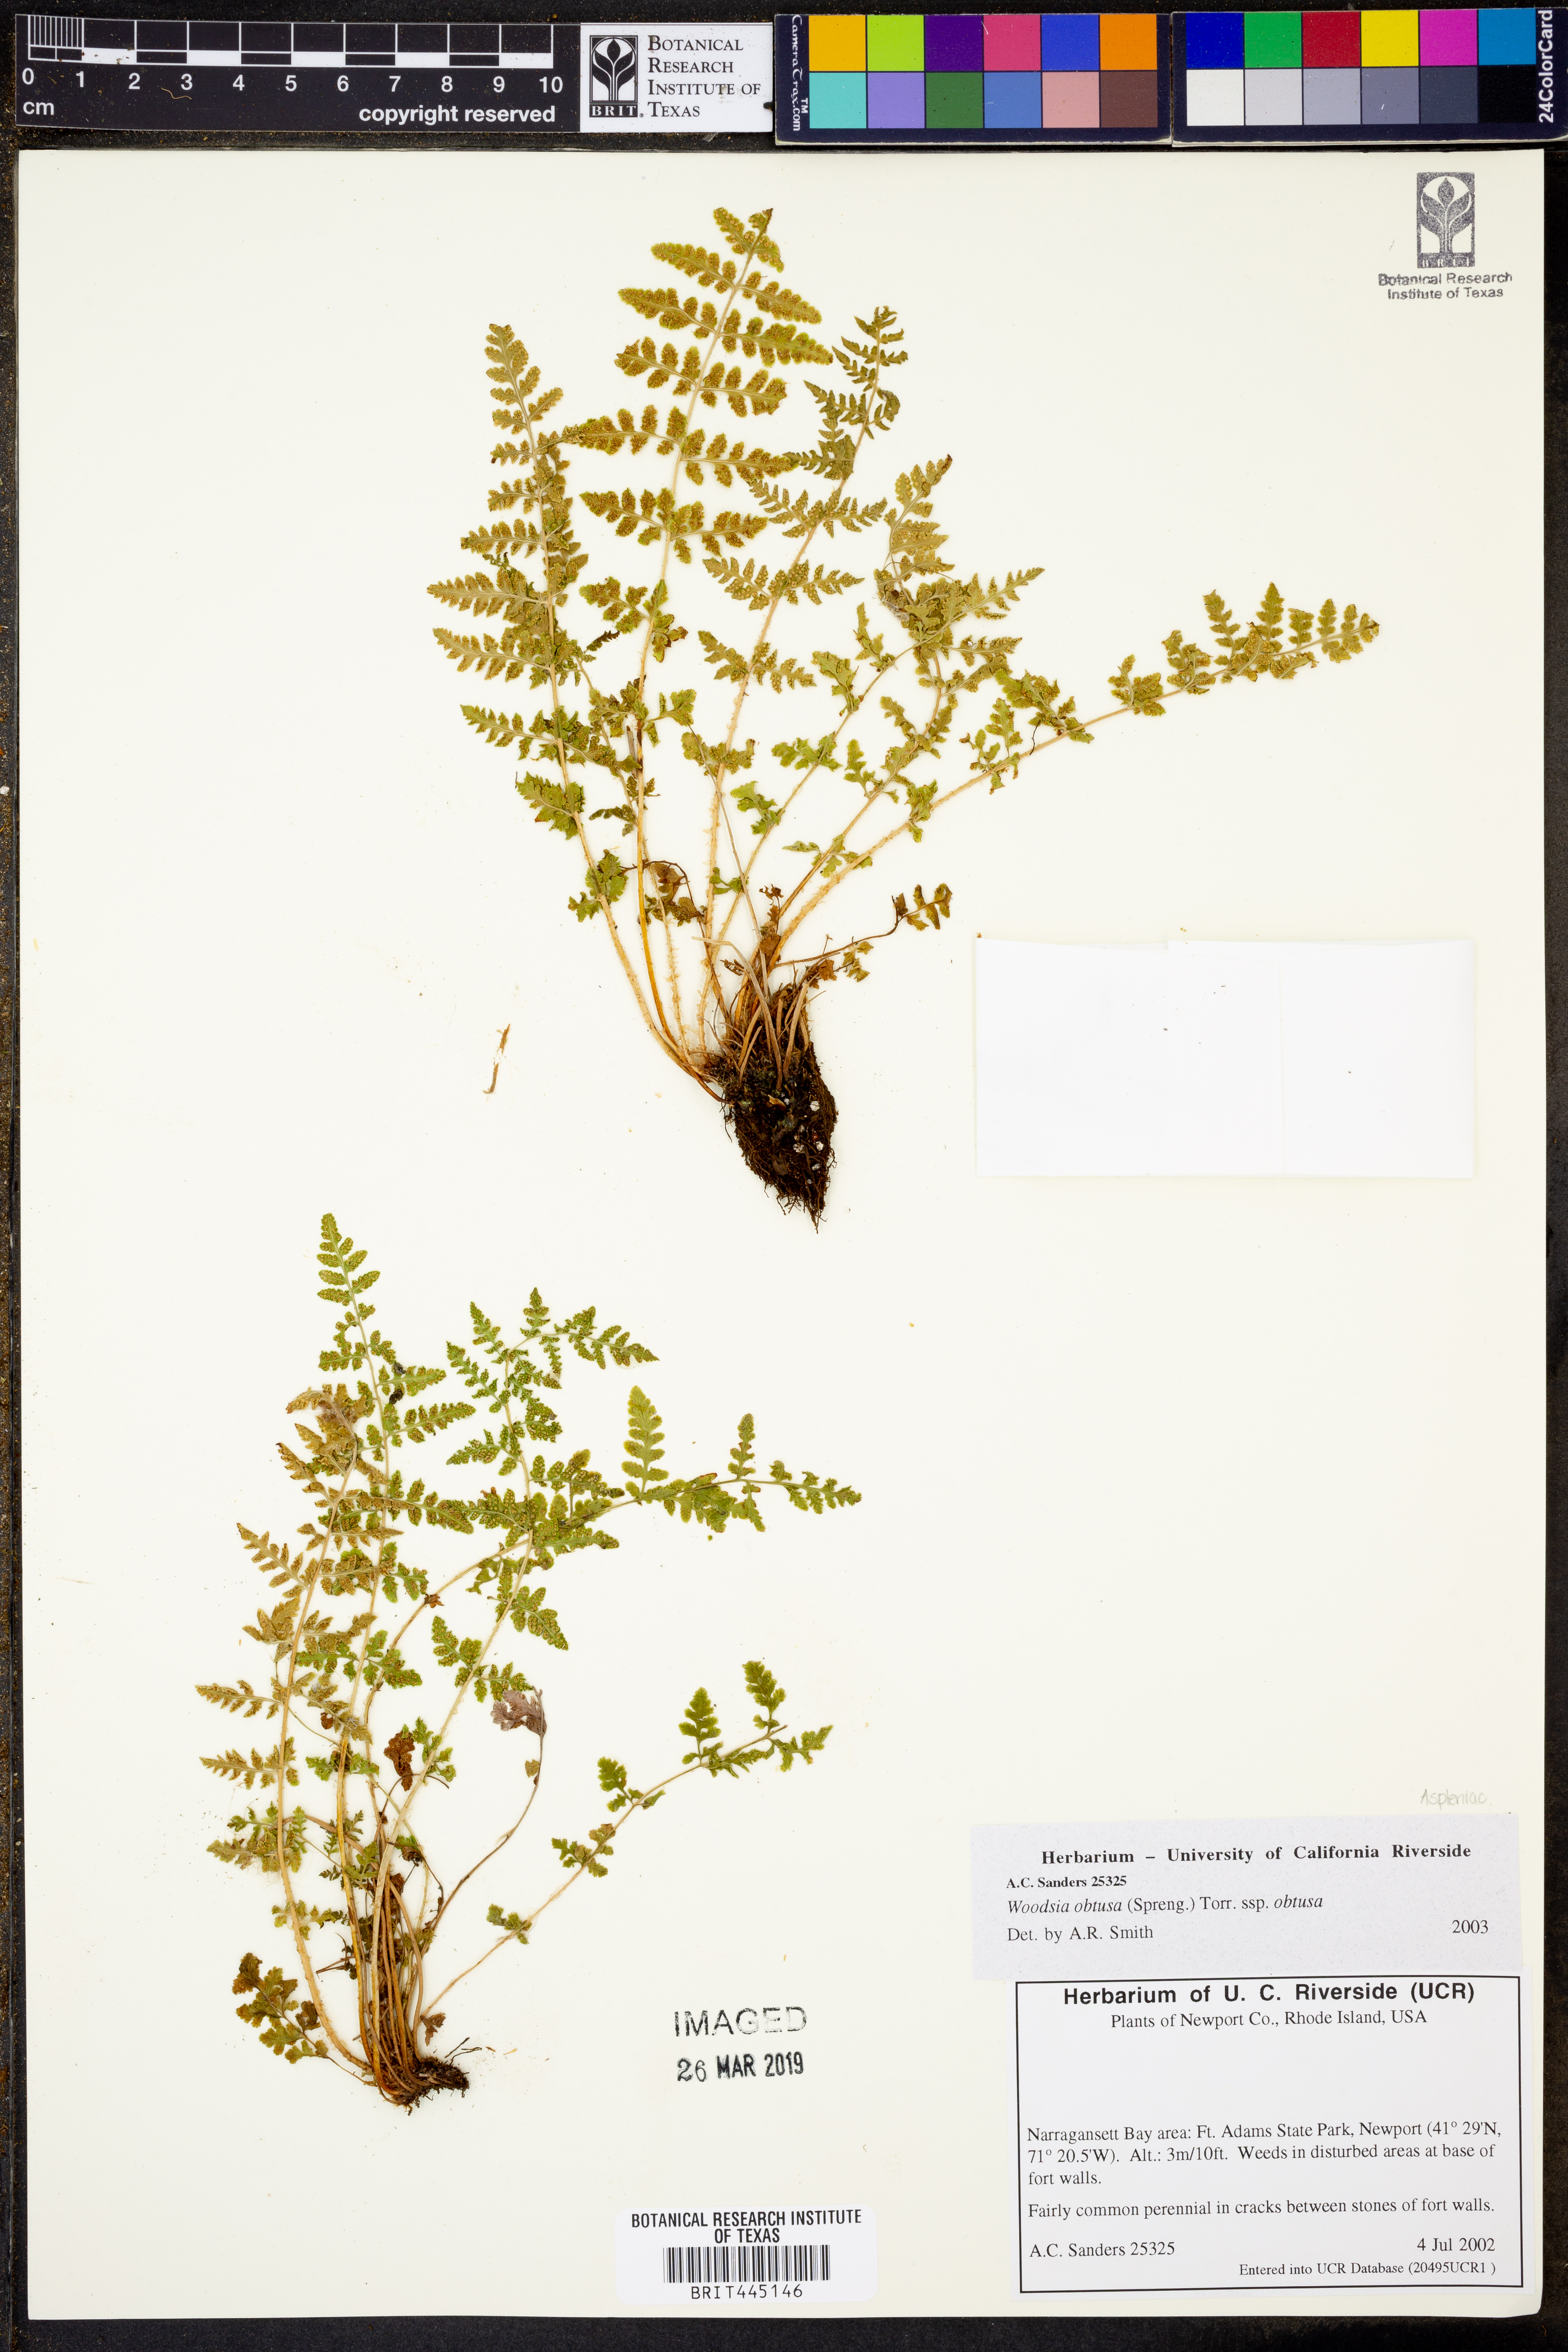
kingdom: Plantae
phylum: Tracheophyta
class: Polypodiopsida
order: Polypodiales
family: Woodsiaceae
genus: Physematium
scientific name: Physematium obtusum
